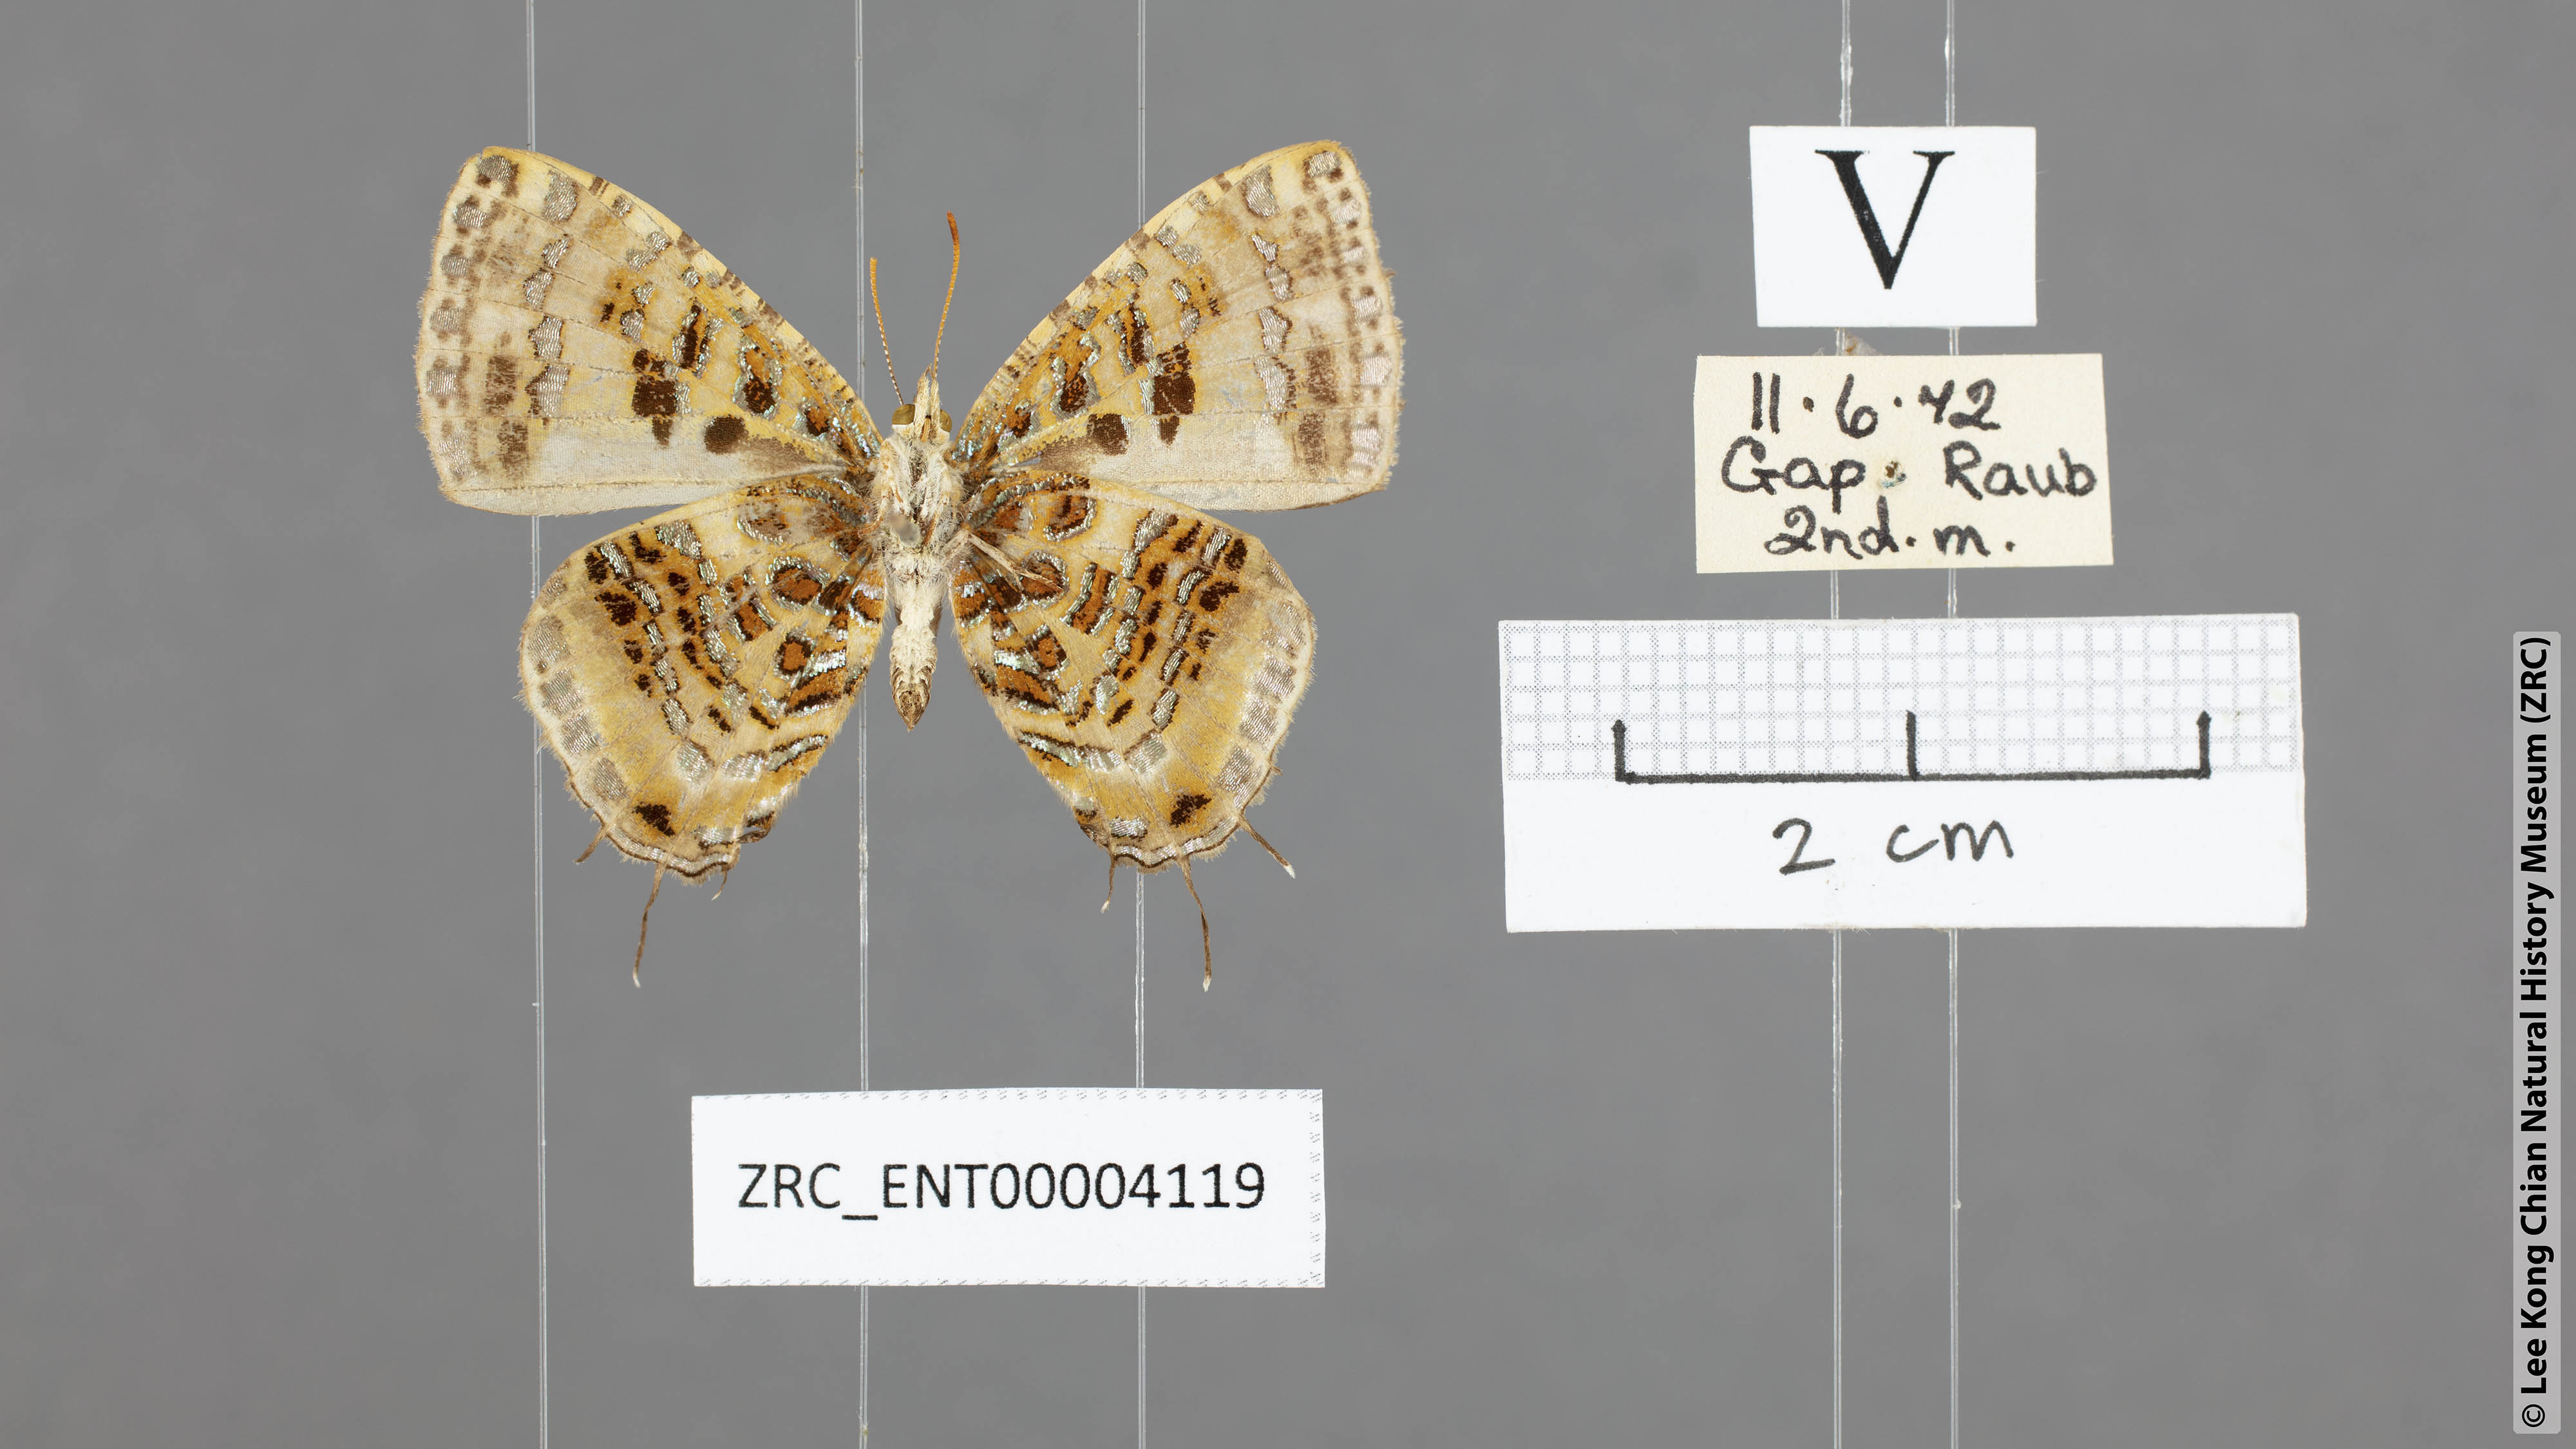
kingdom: Animalia
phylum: Arthropoda
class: Insecta
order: Lepidoptera
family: Lycaenidae
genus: Catapaecilma
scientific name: Catapaecilma major
